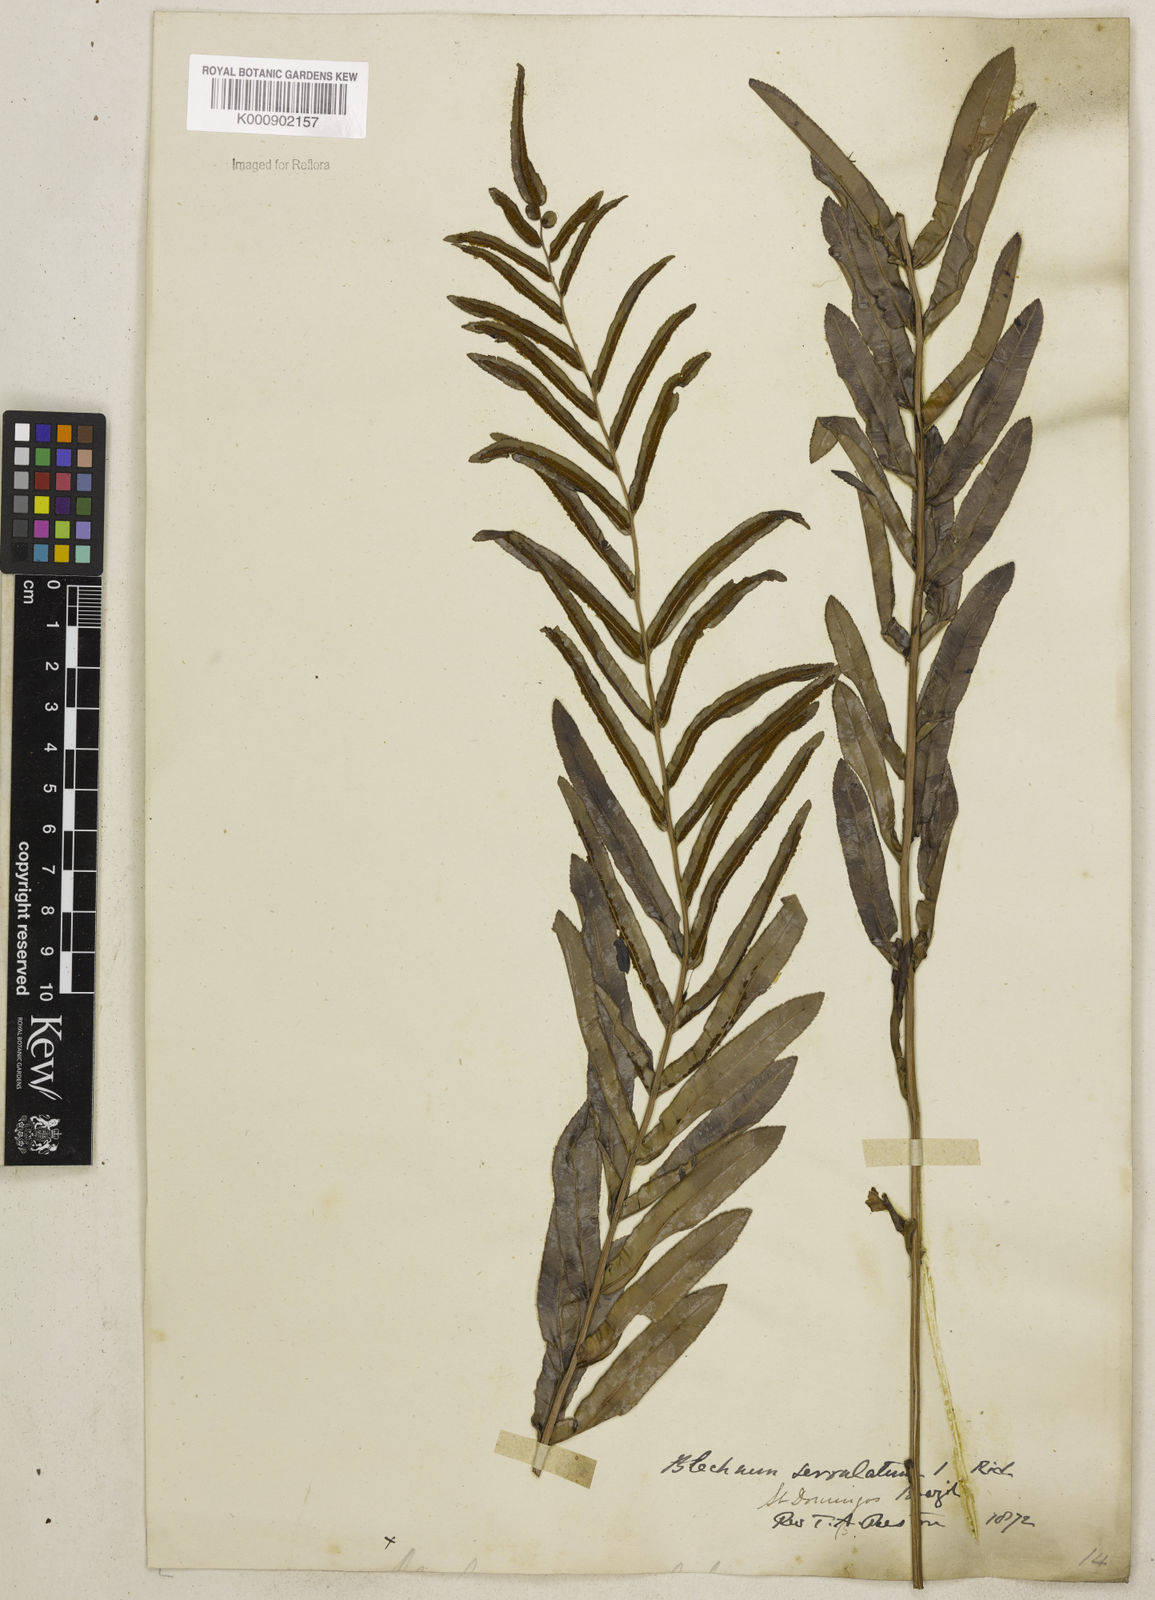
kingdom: Plantae
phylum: Tracheophyta
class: Polypodiopsida
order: Polypodiales
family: Blechnaceae
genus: Telmatoblechnum
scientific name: Telmatoblechnum serrulatum
